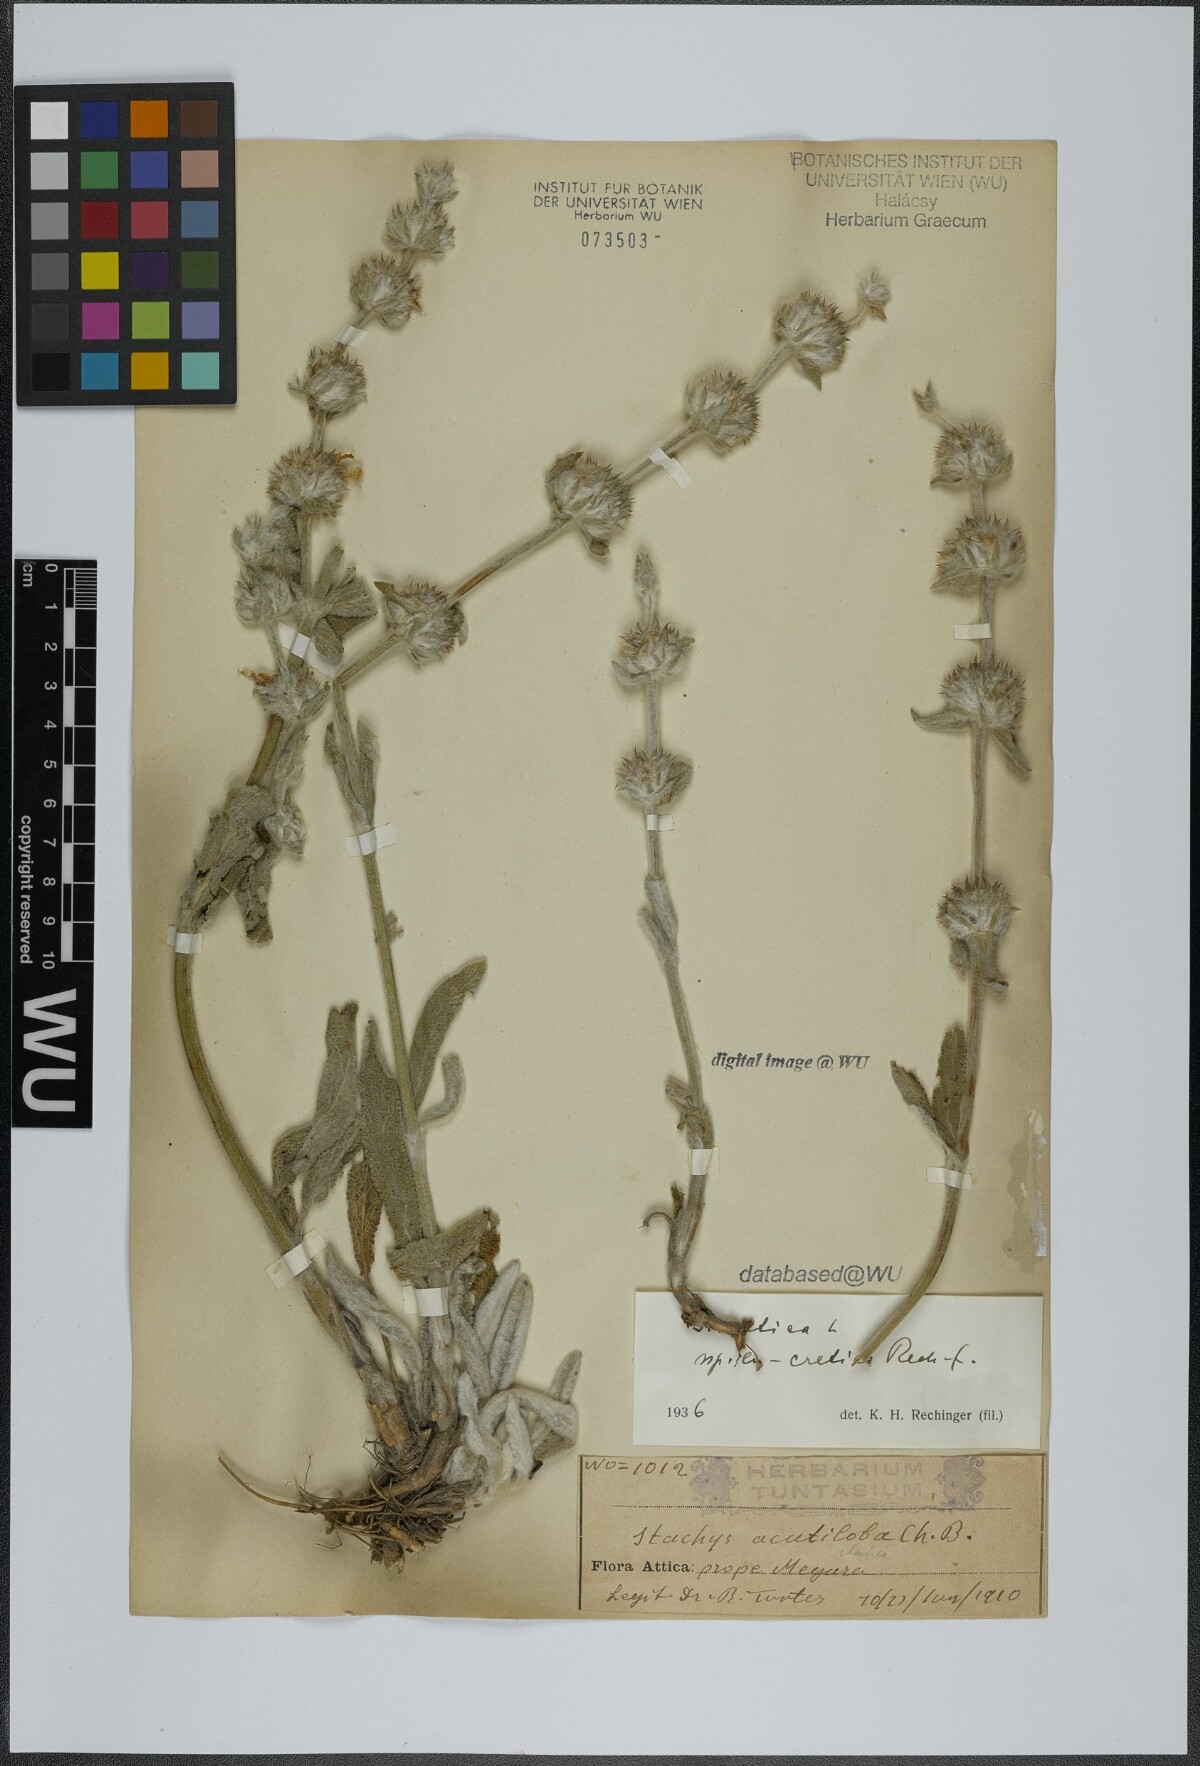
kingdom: Plantae
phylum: Tracheophyta
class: Magnoliopsida
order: Lamiales
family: Lamiaceae
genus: Stachys
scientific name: Stachys cretica
